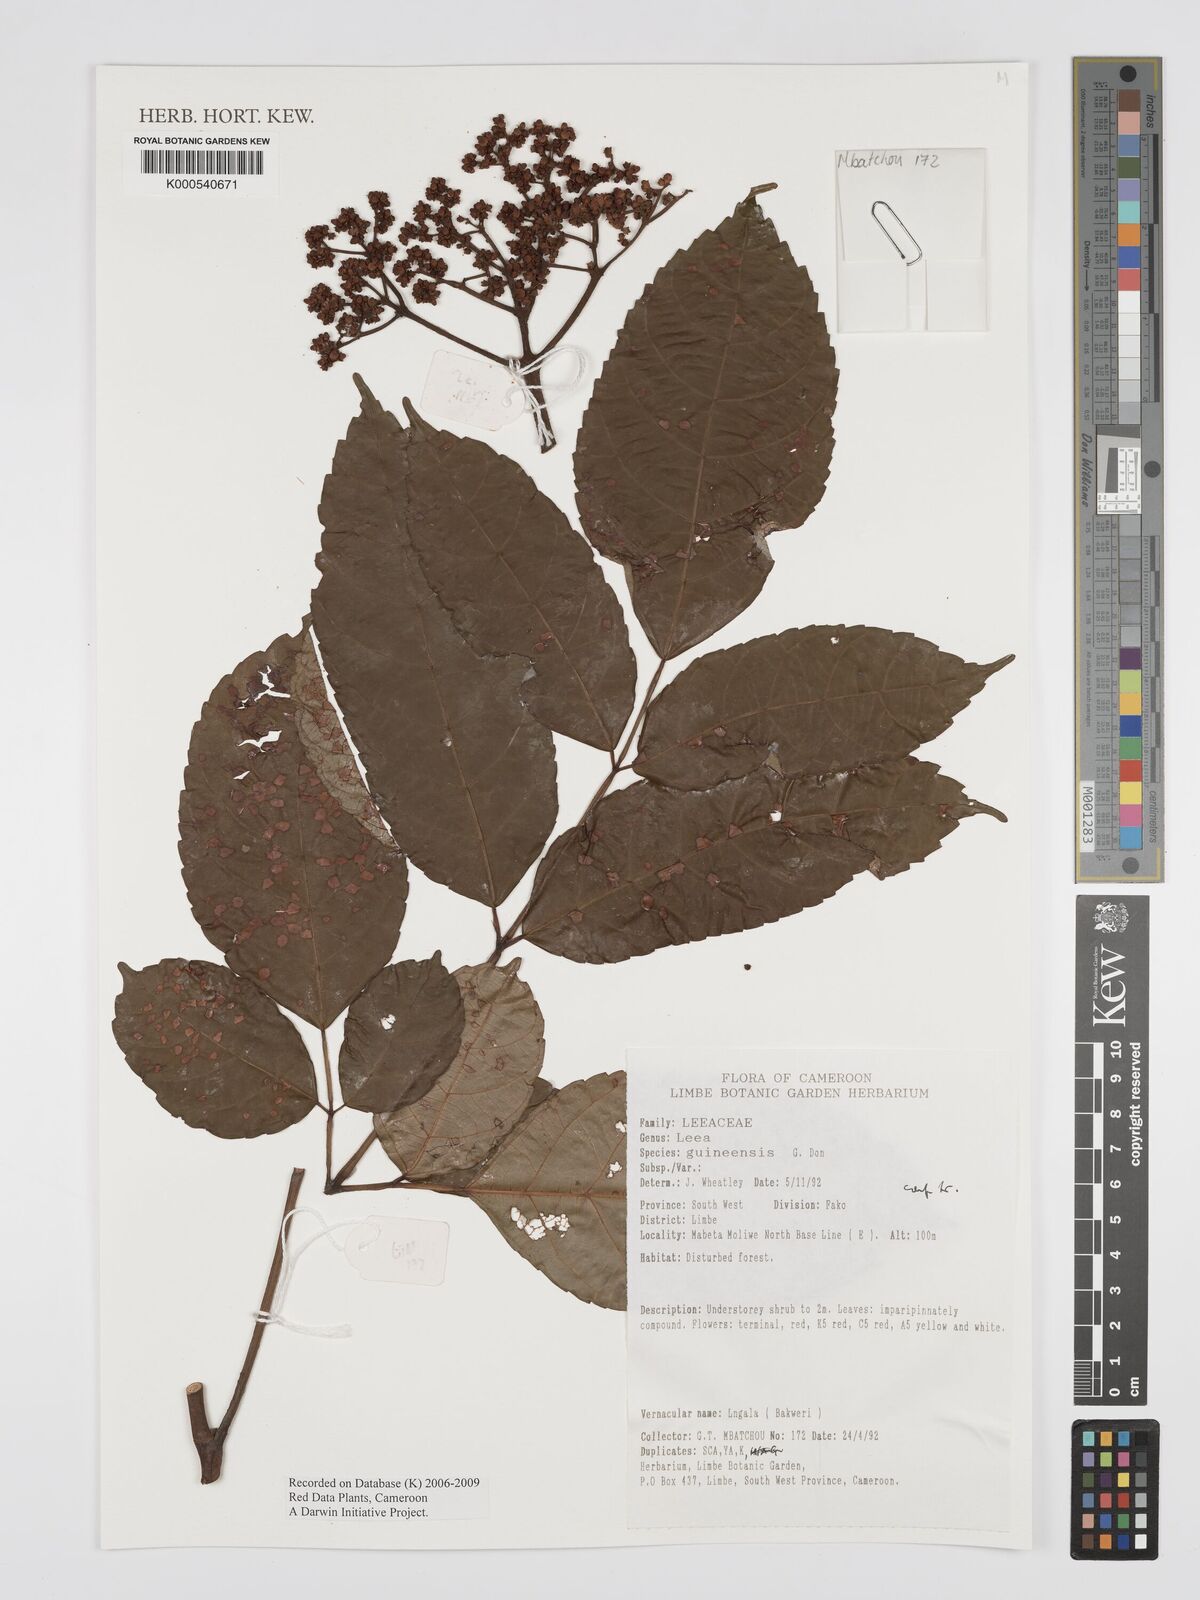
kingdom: Plantae
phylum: Tracheophyta
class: Magnoliopsida
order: Vitales
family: Vitaceae
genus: Leea
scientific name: Leea guineensis
